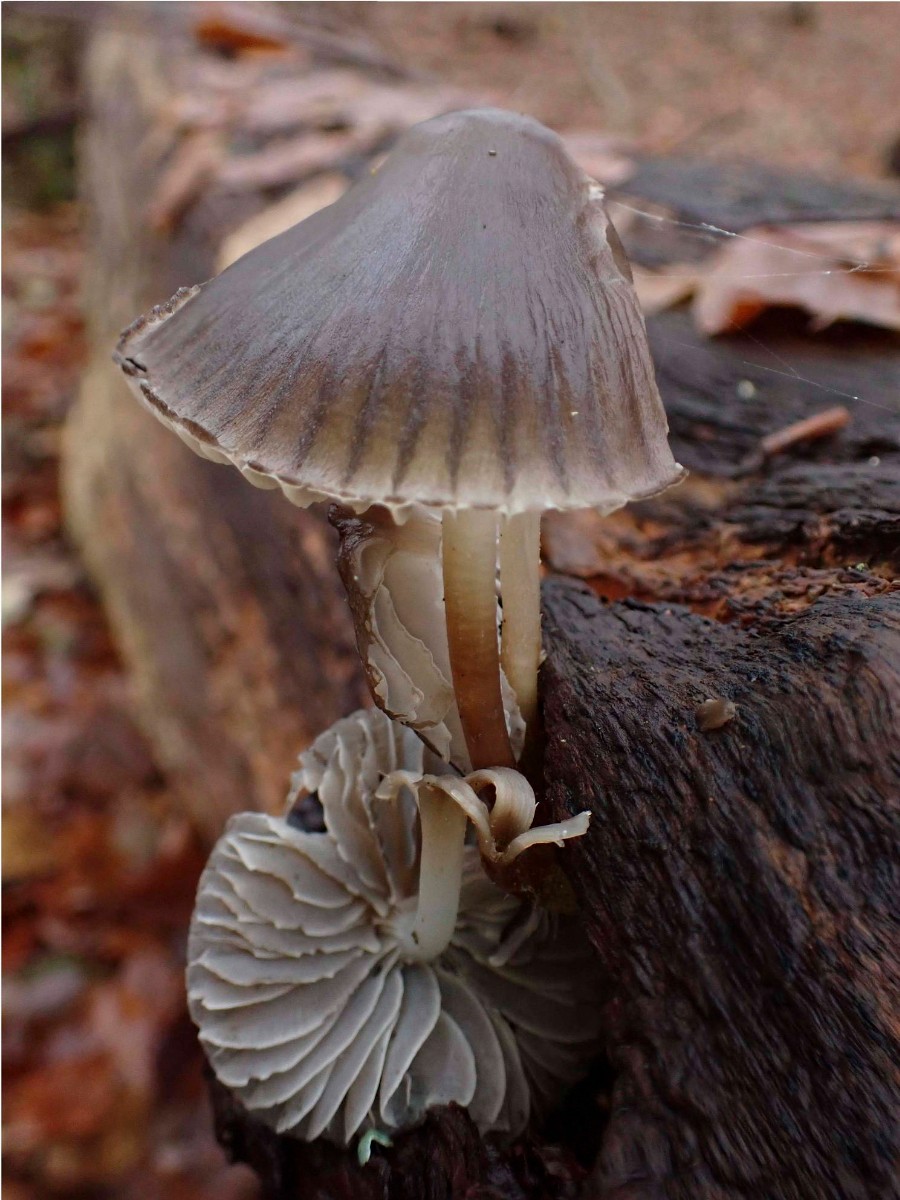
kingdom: Fungi
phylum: Basidiomycota
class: Agaricomycetes
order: Agaricales
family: Mycenaceae
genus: Mycena
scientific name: Mycena inclinata
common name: nikkende huesvamp
